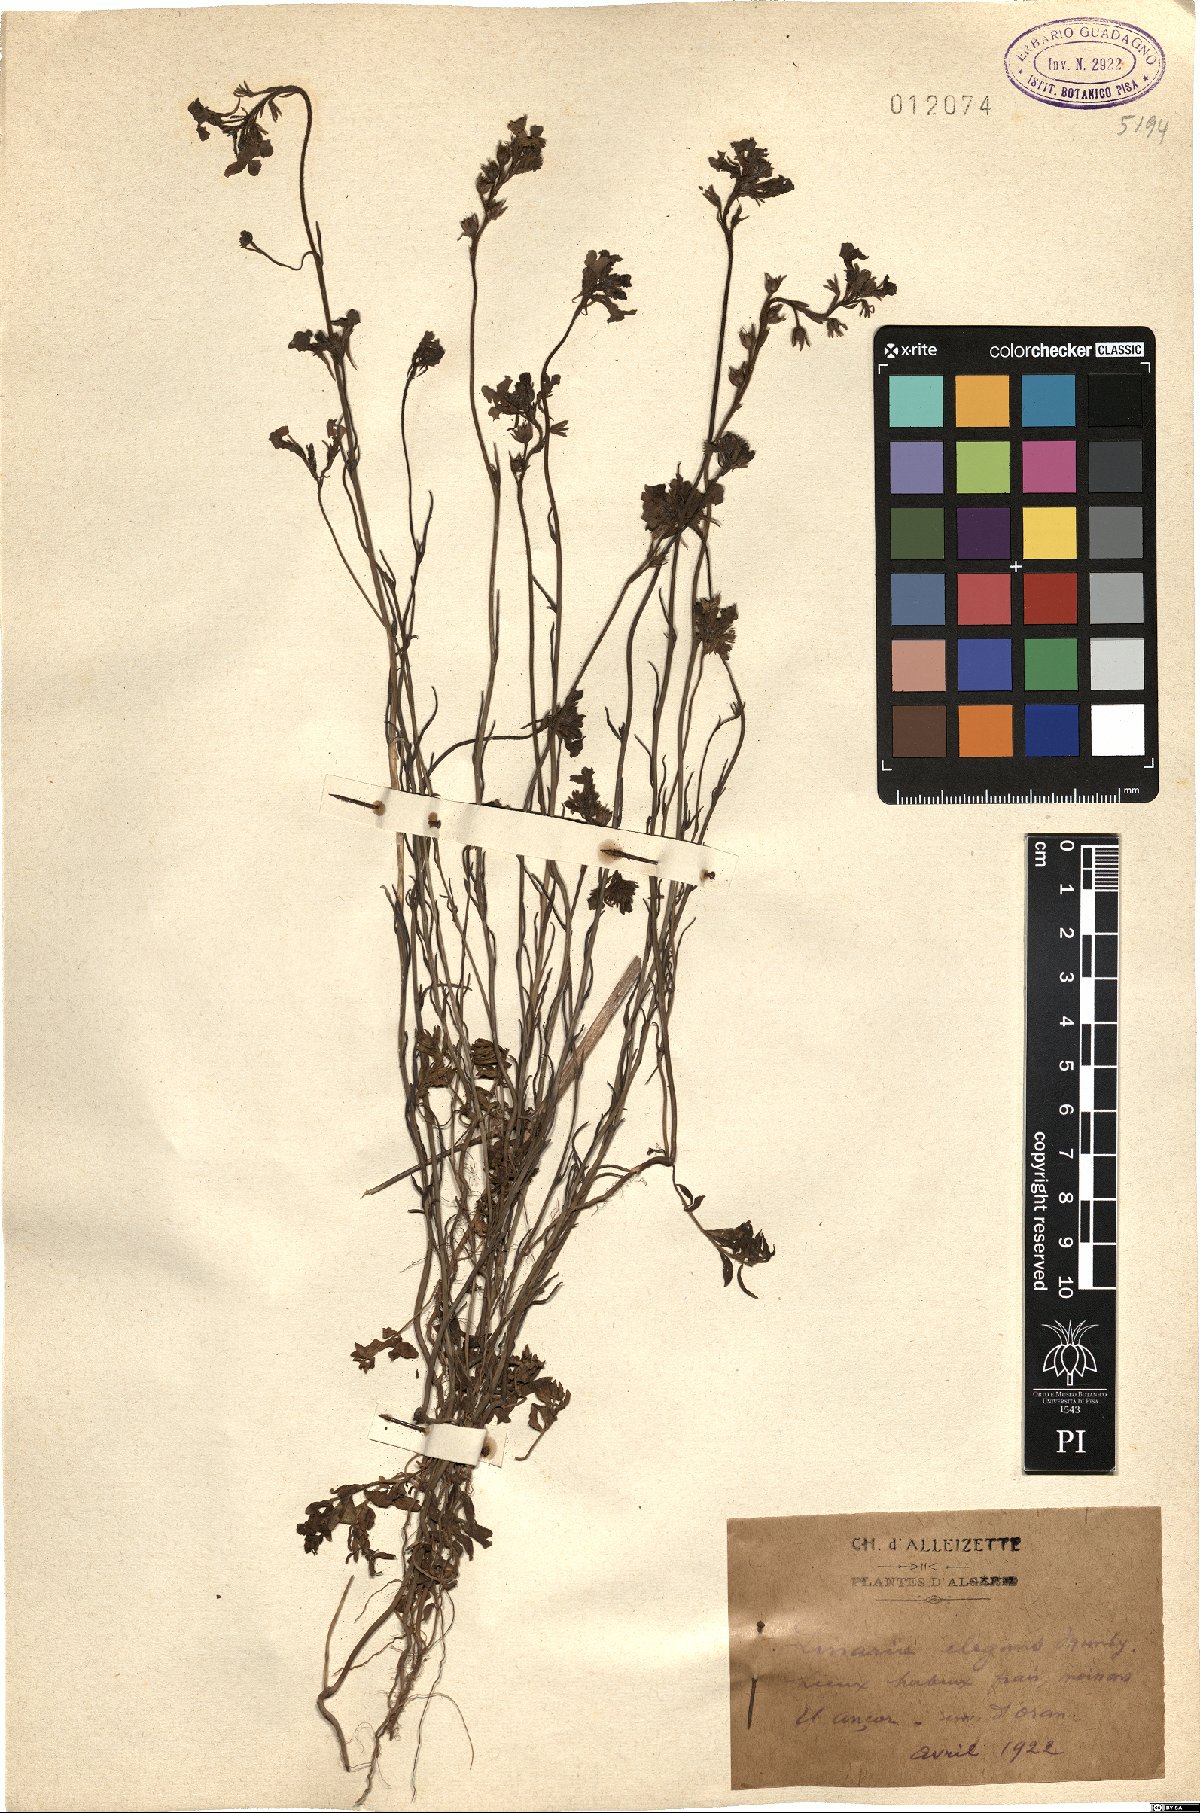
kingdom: Plantae
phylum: Tracheophyta
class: Magnoliopsida
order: Lamiales
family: Plantaginaceae
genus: Linaria
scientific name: Linaria bordiana
